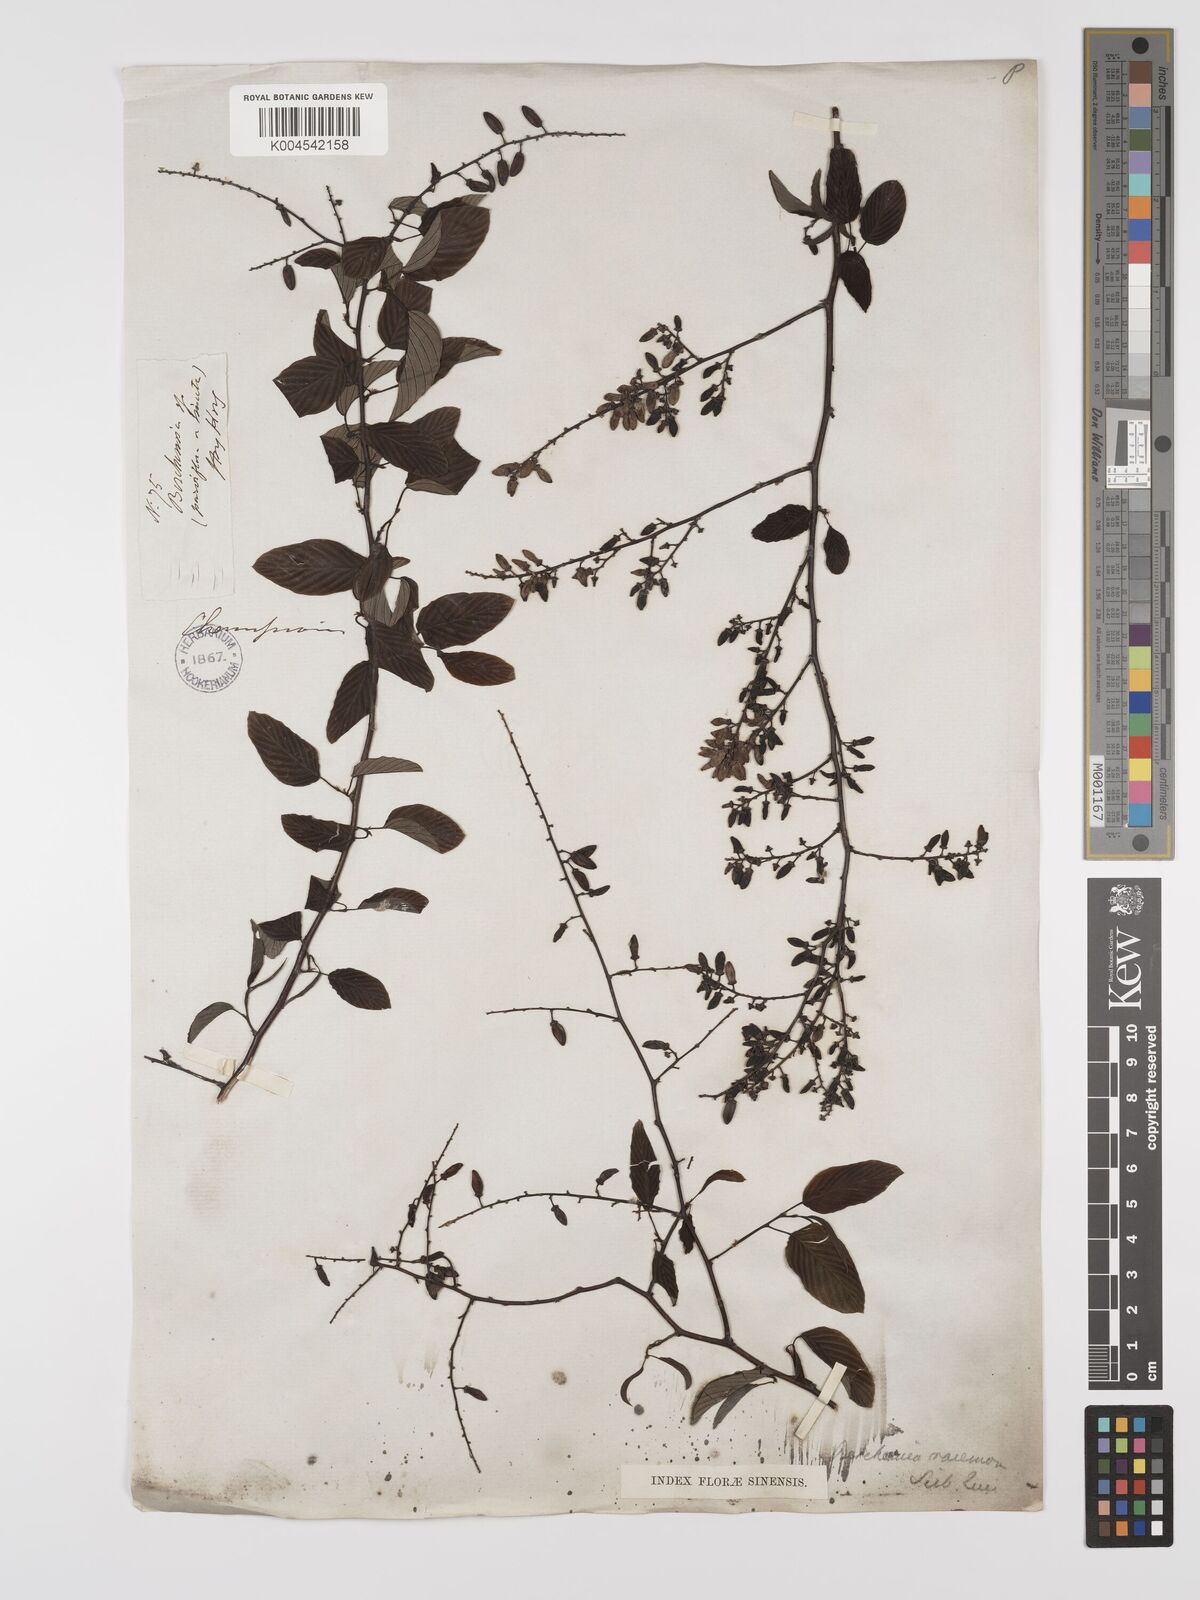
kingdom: Plantae
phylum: Tracheophyta
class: Magnoliopsida
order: Rosales
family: Rhamnaceae
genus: Berchemia
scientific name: Berchemia floribunda
